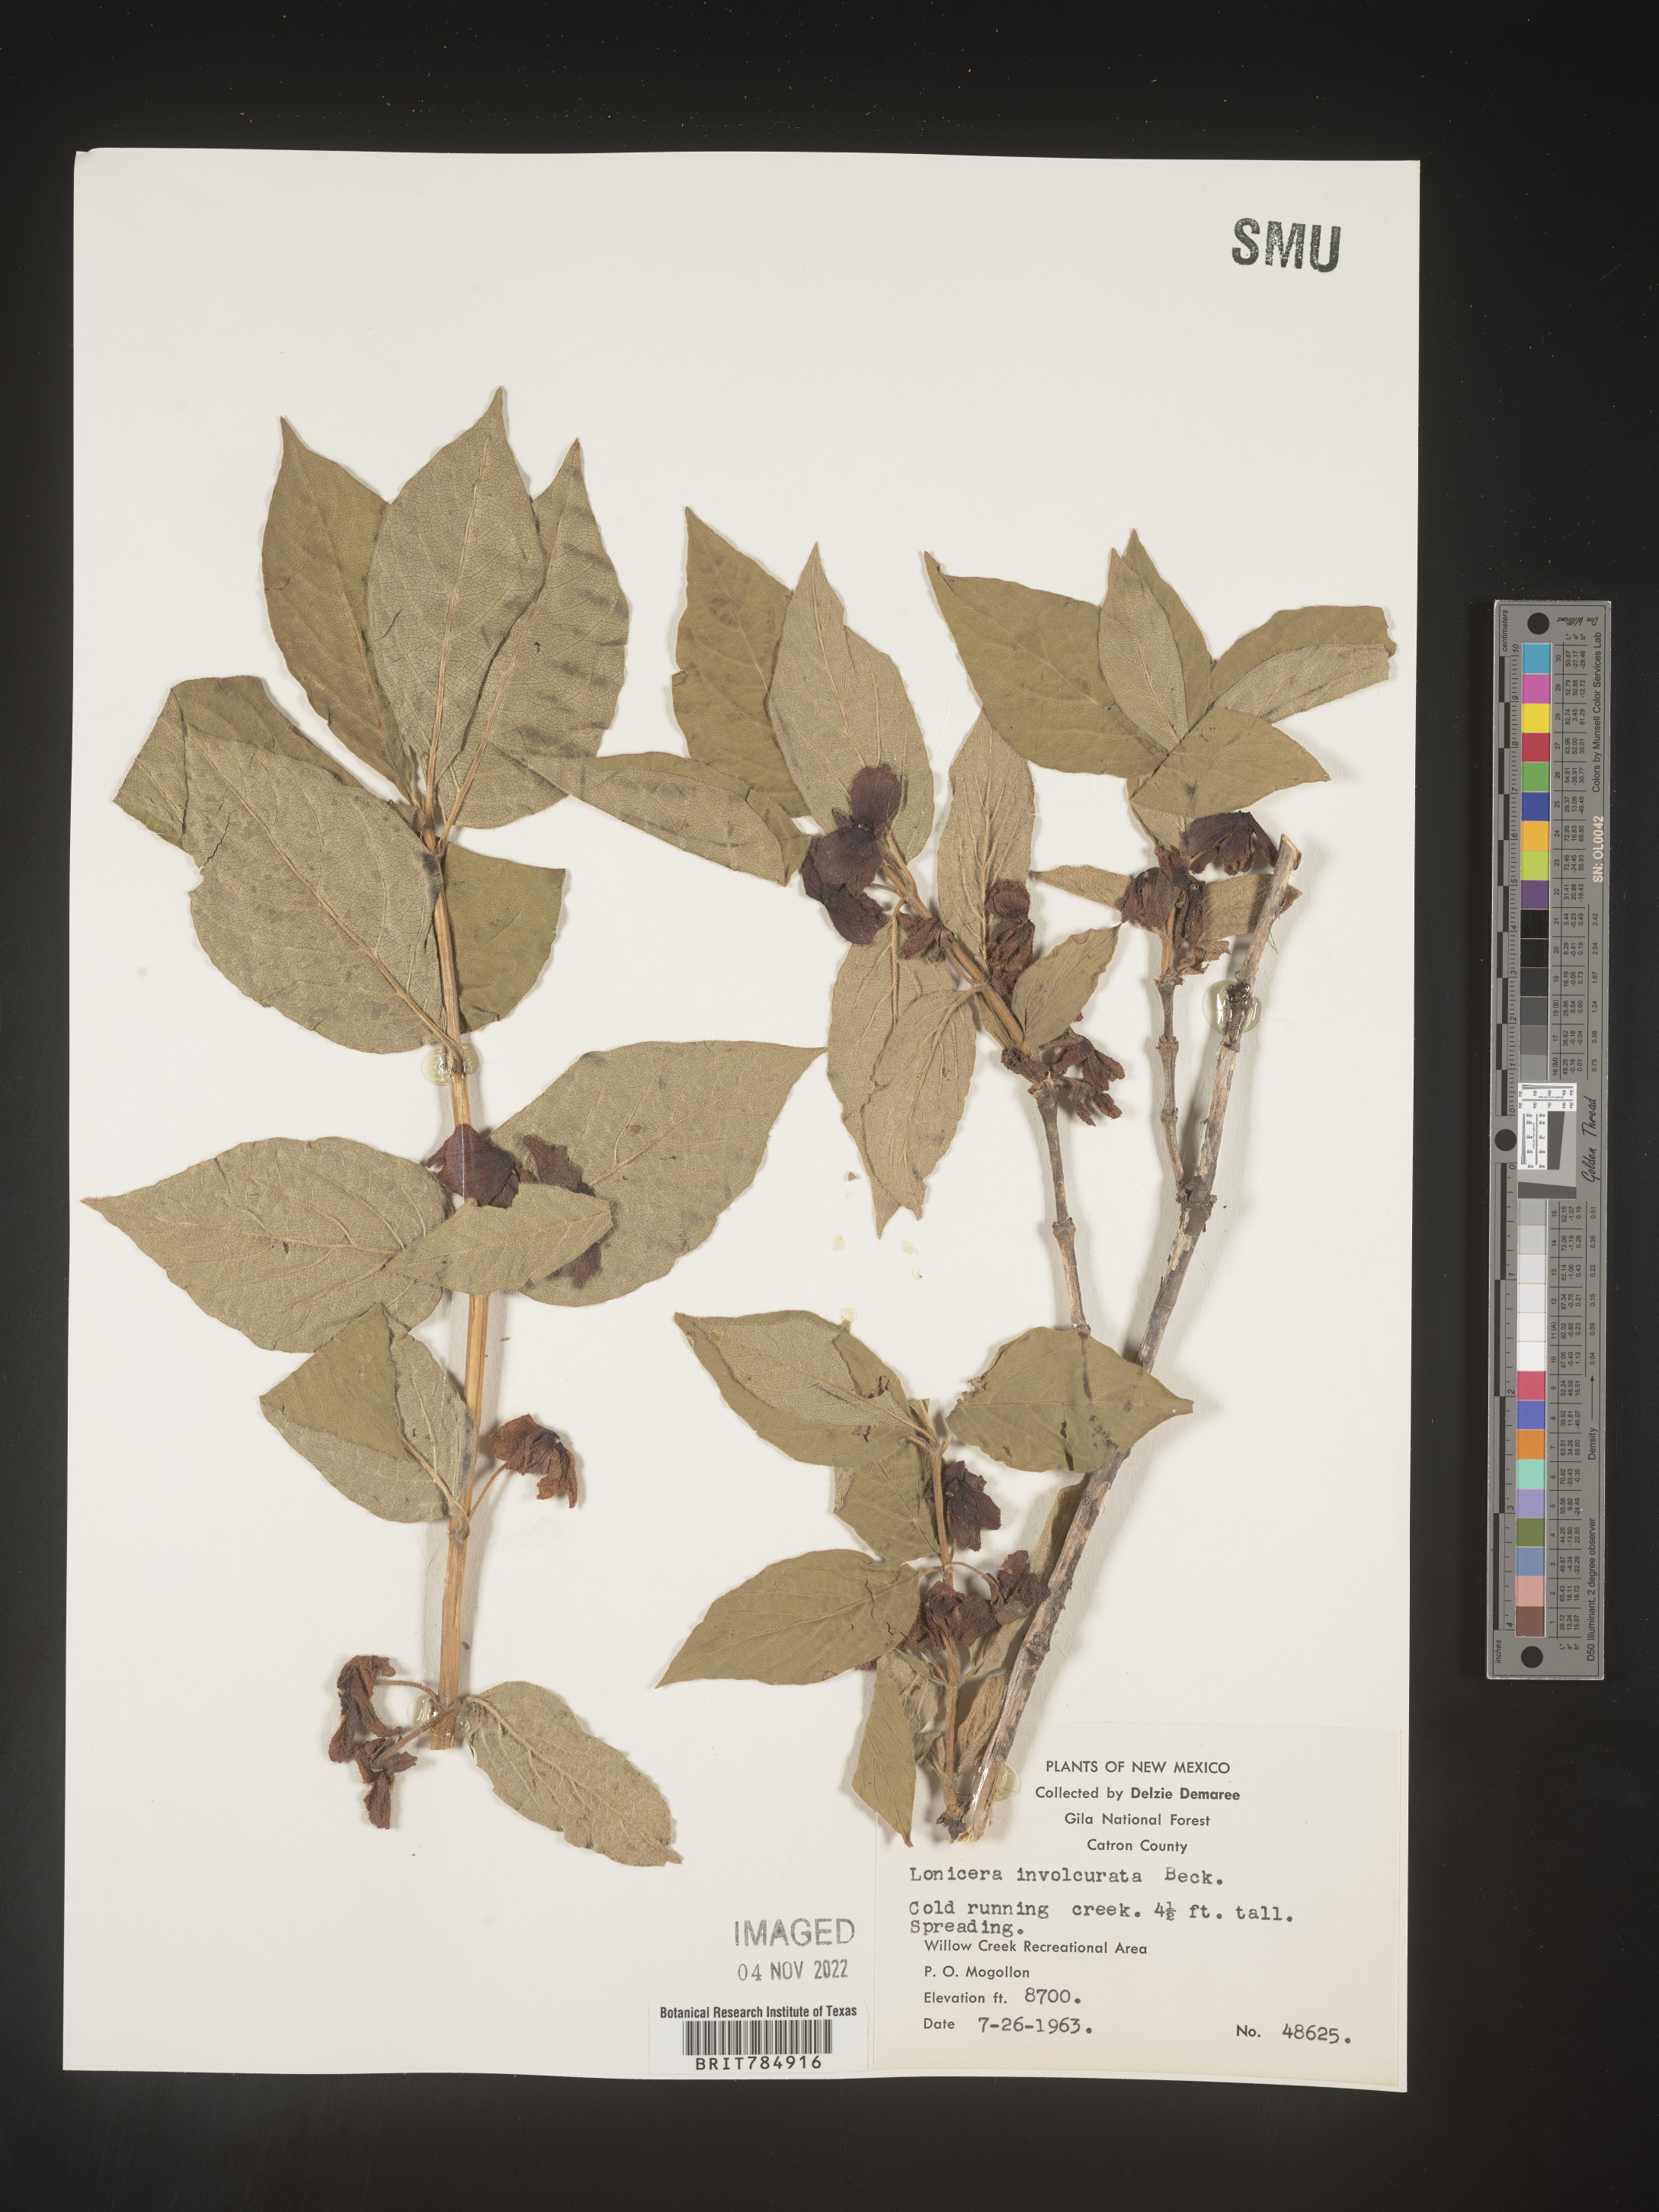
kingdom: Plantae
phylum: Tracheophyta
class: Magnoliopsida
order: Dipsacales
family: Caprifoliaceae
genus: Lonicera
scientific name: Lonicera involucrata
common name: Californian honeysuckle
